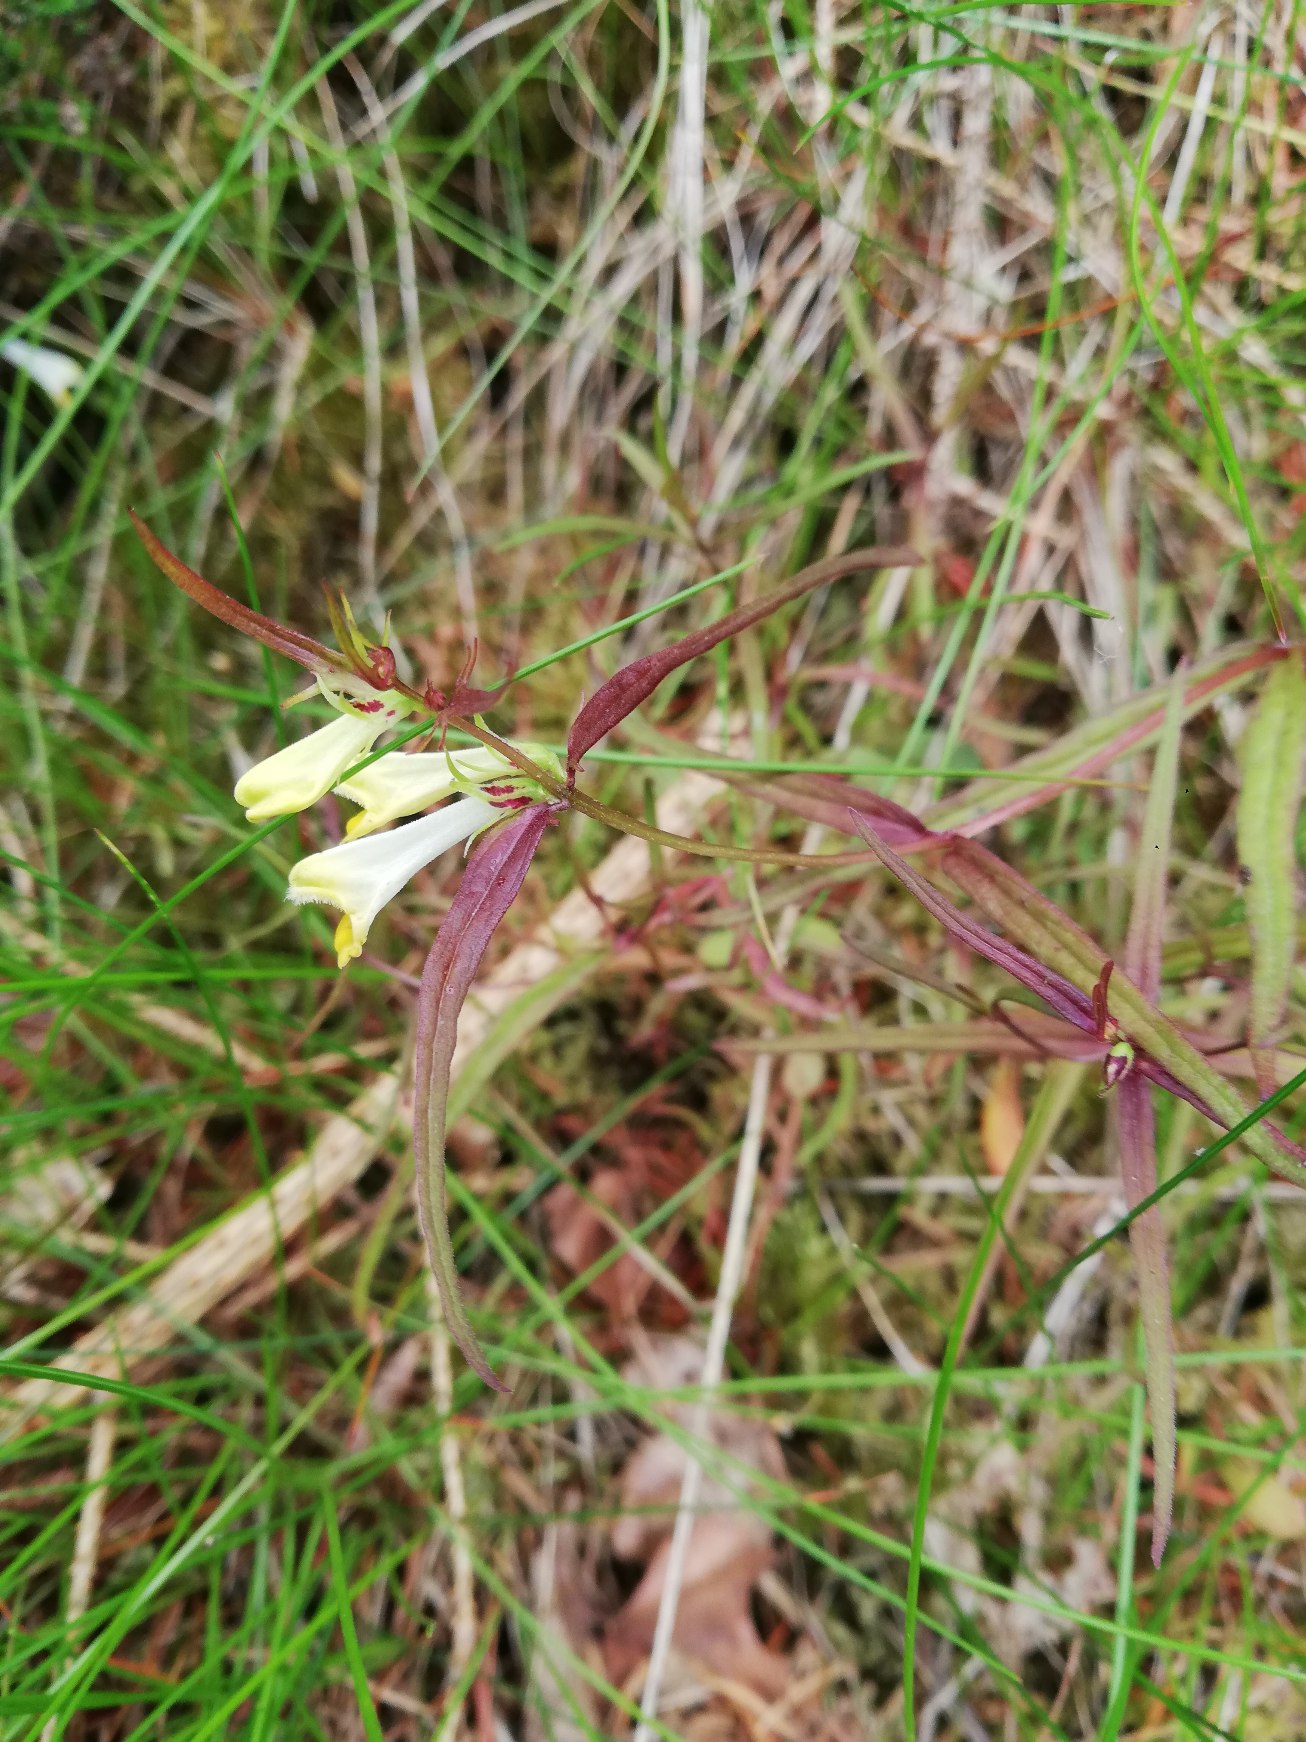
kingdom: Plantae
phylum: Tracheophyta
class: Magnoliopsida
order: Lamiales
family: Orobanchaceae
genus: Melampyrum
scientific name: Melampyrum pratense
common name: Almindelig kohvede
